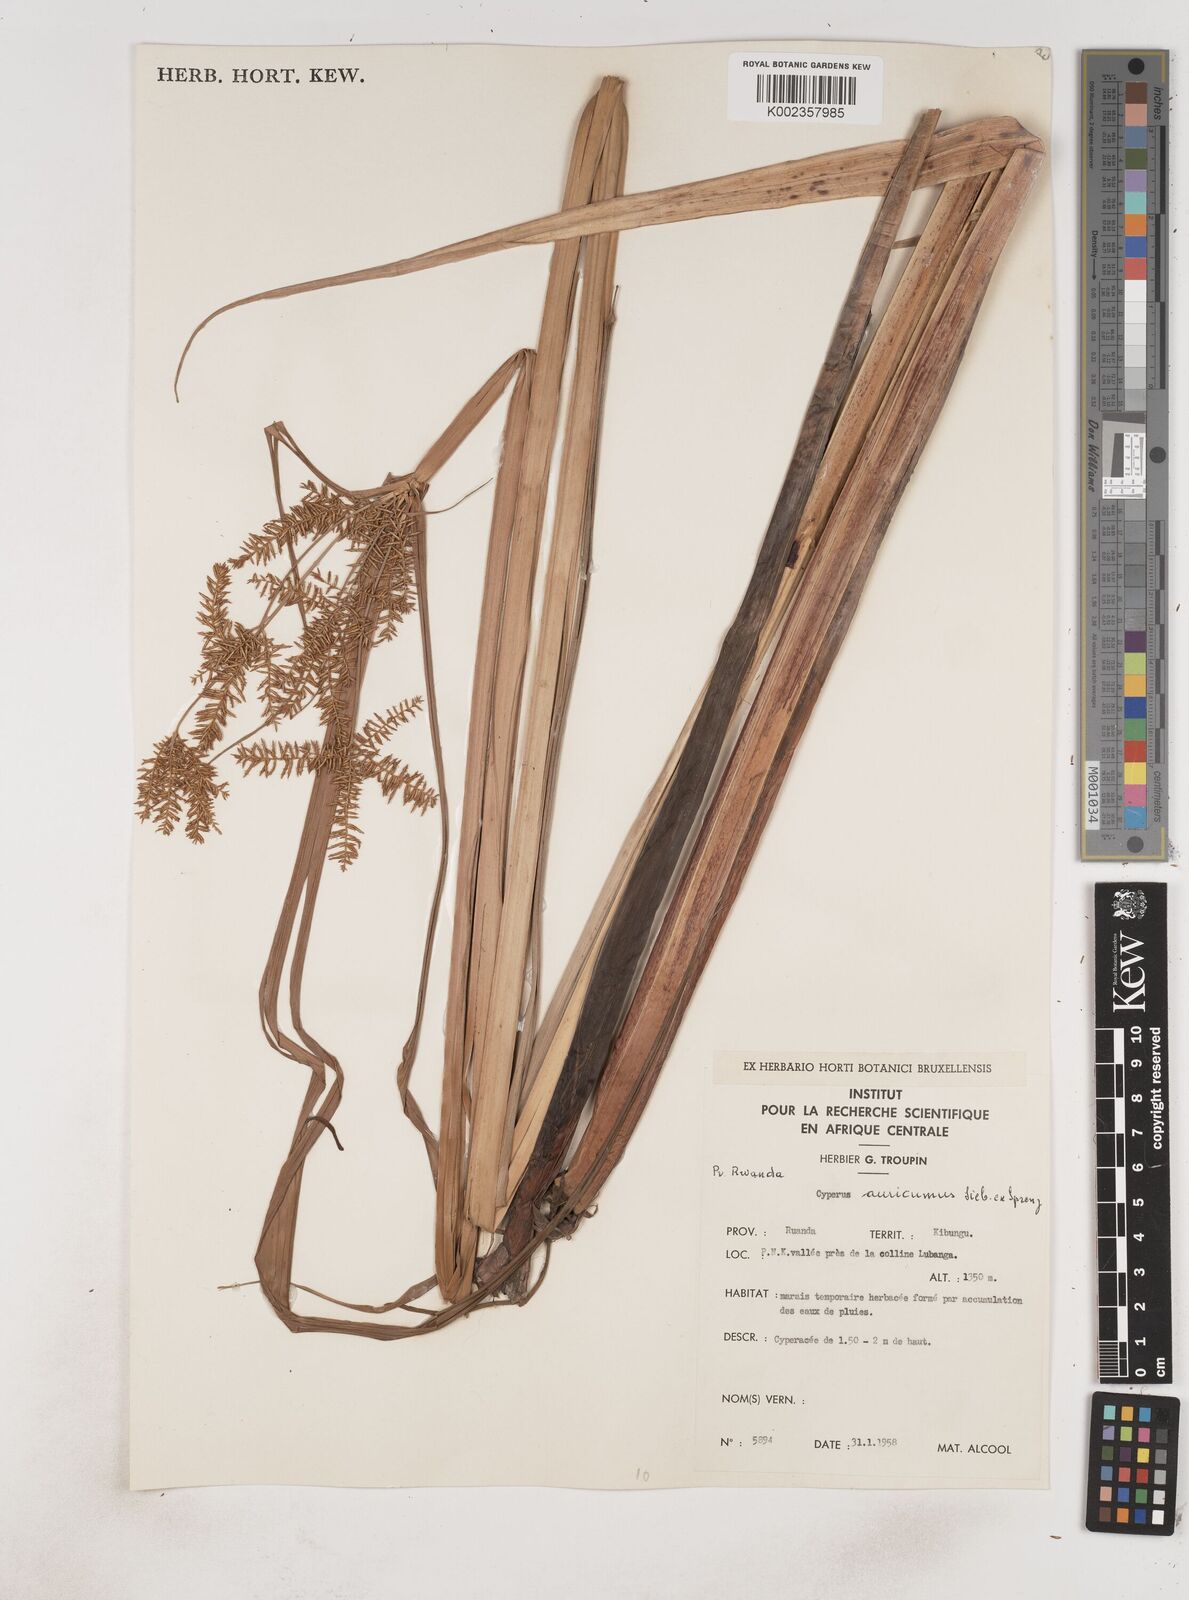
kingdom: Plantae
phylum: Tracheophyta
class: Liliopsida
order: Poales
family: Cyperaceae
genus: Cyperus
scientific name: Cyperus digitatus
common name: Finger flatsedge
